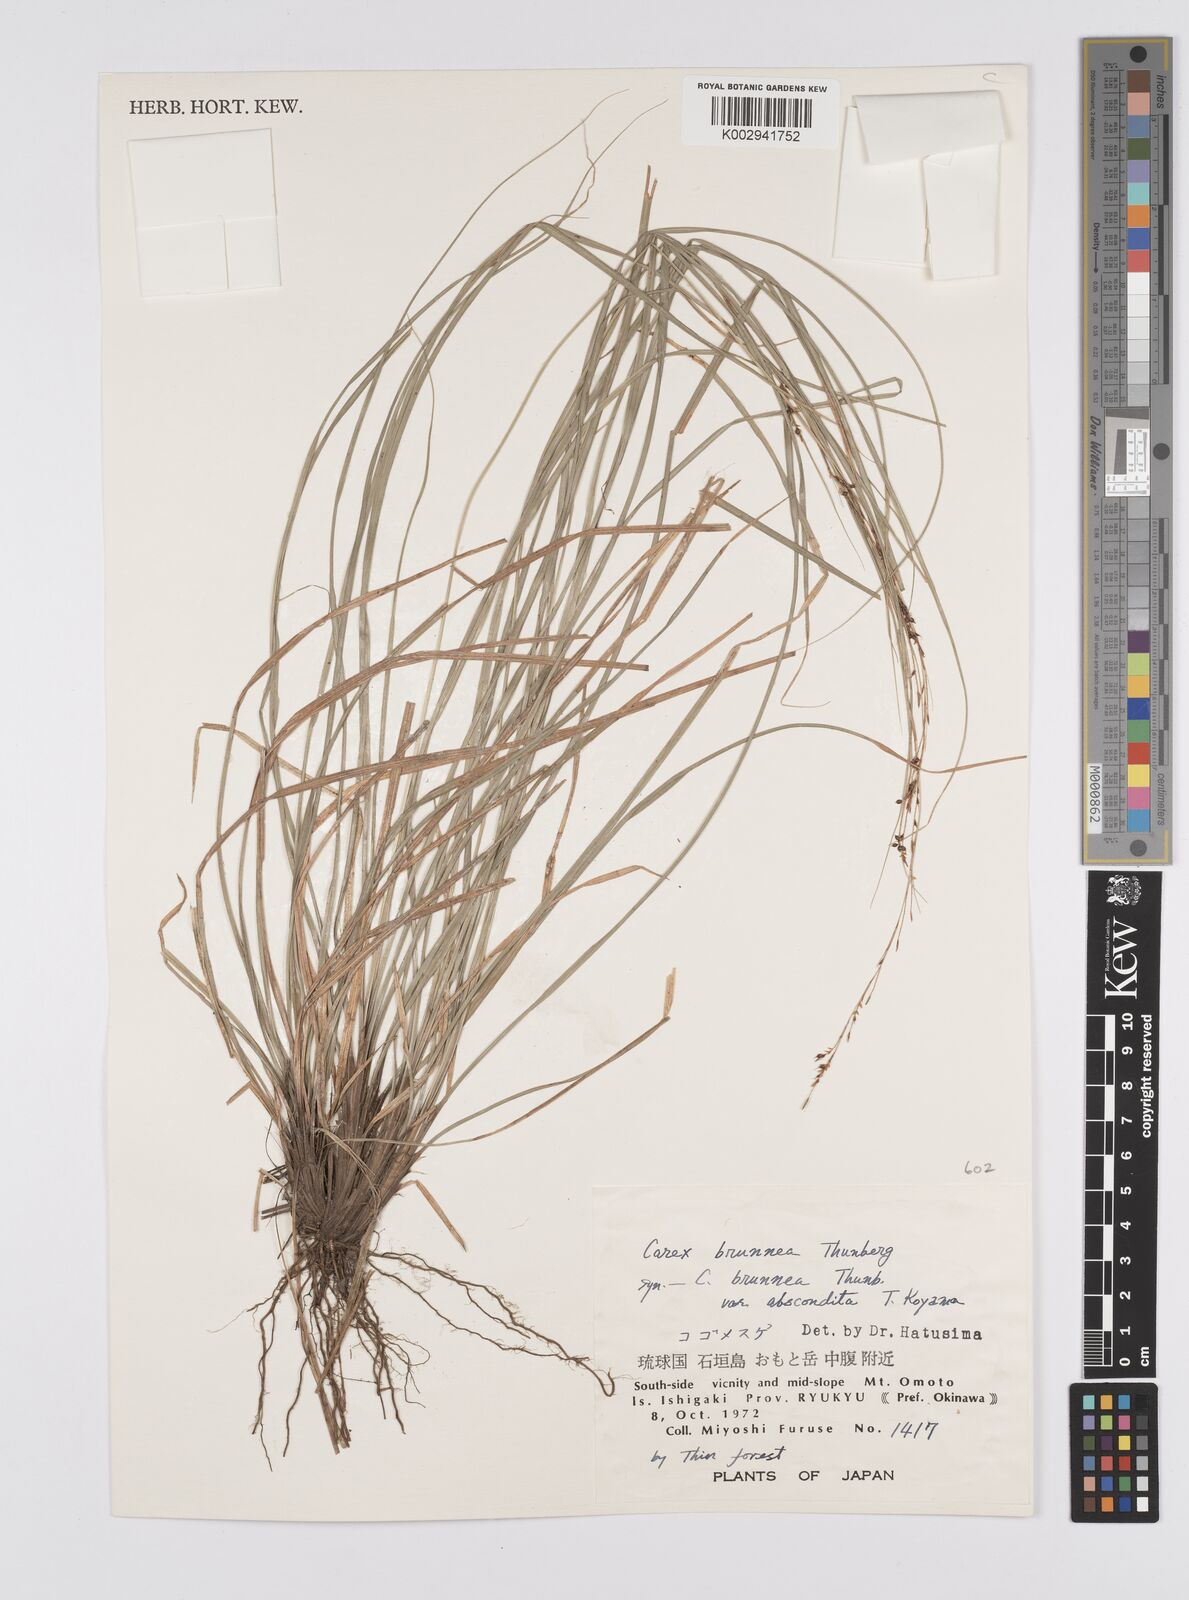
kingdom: Plantae
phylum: Tracheophyta
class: Liliopsida
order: Poales
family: Cyperaceae
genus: Carex
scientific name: Carex brunnea
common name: Greater brown sedge
